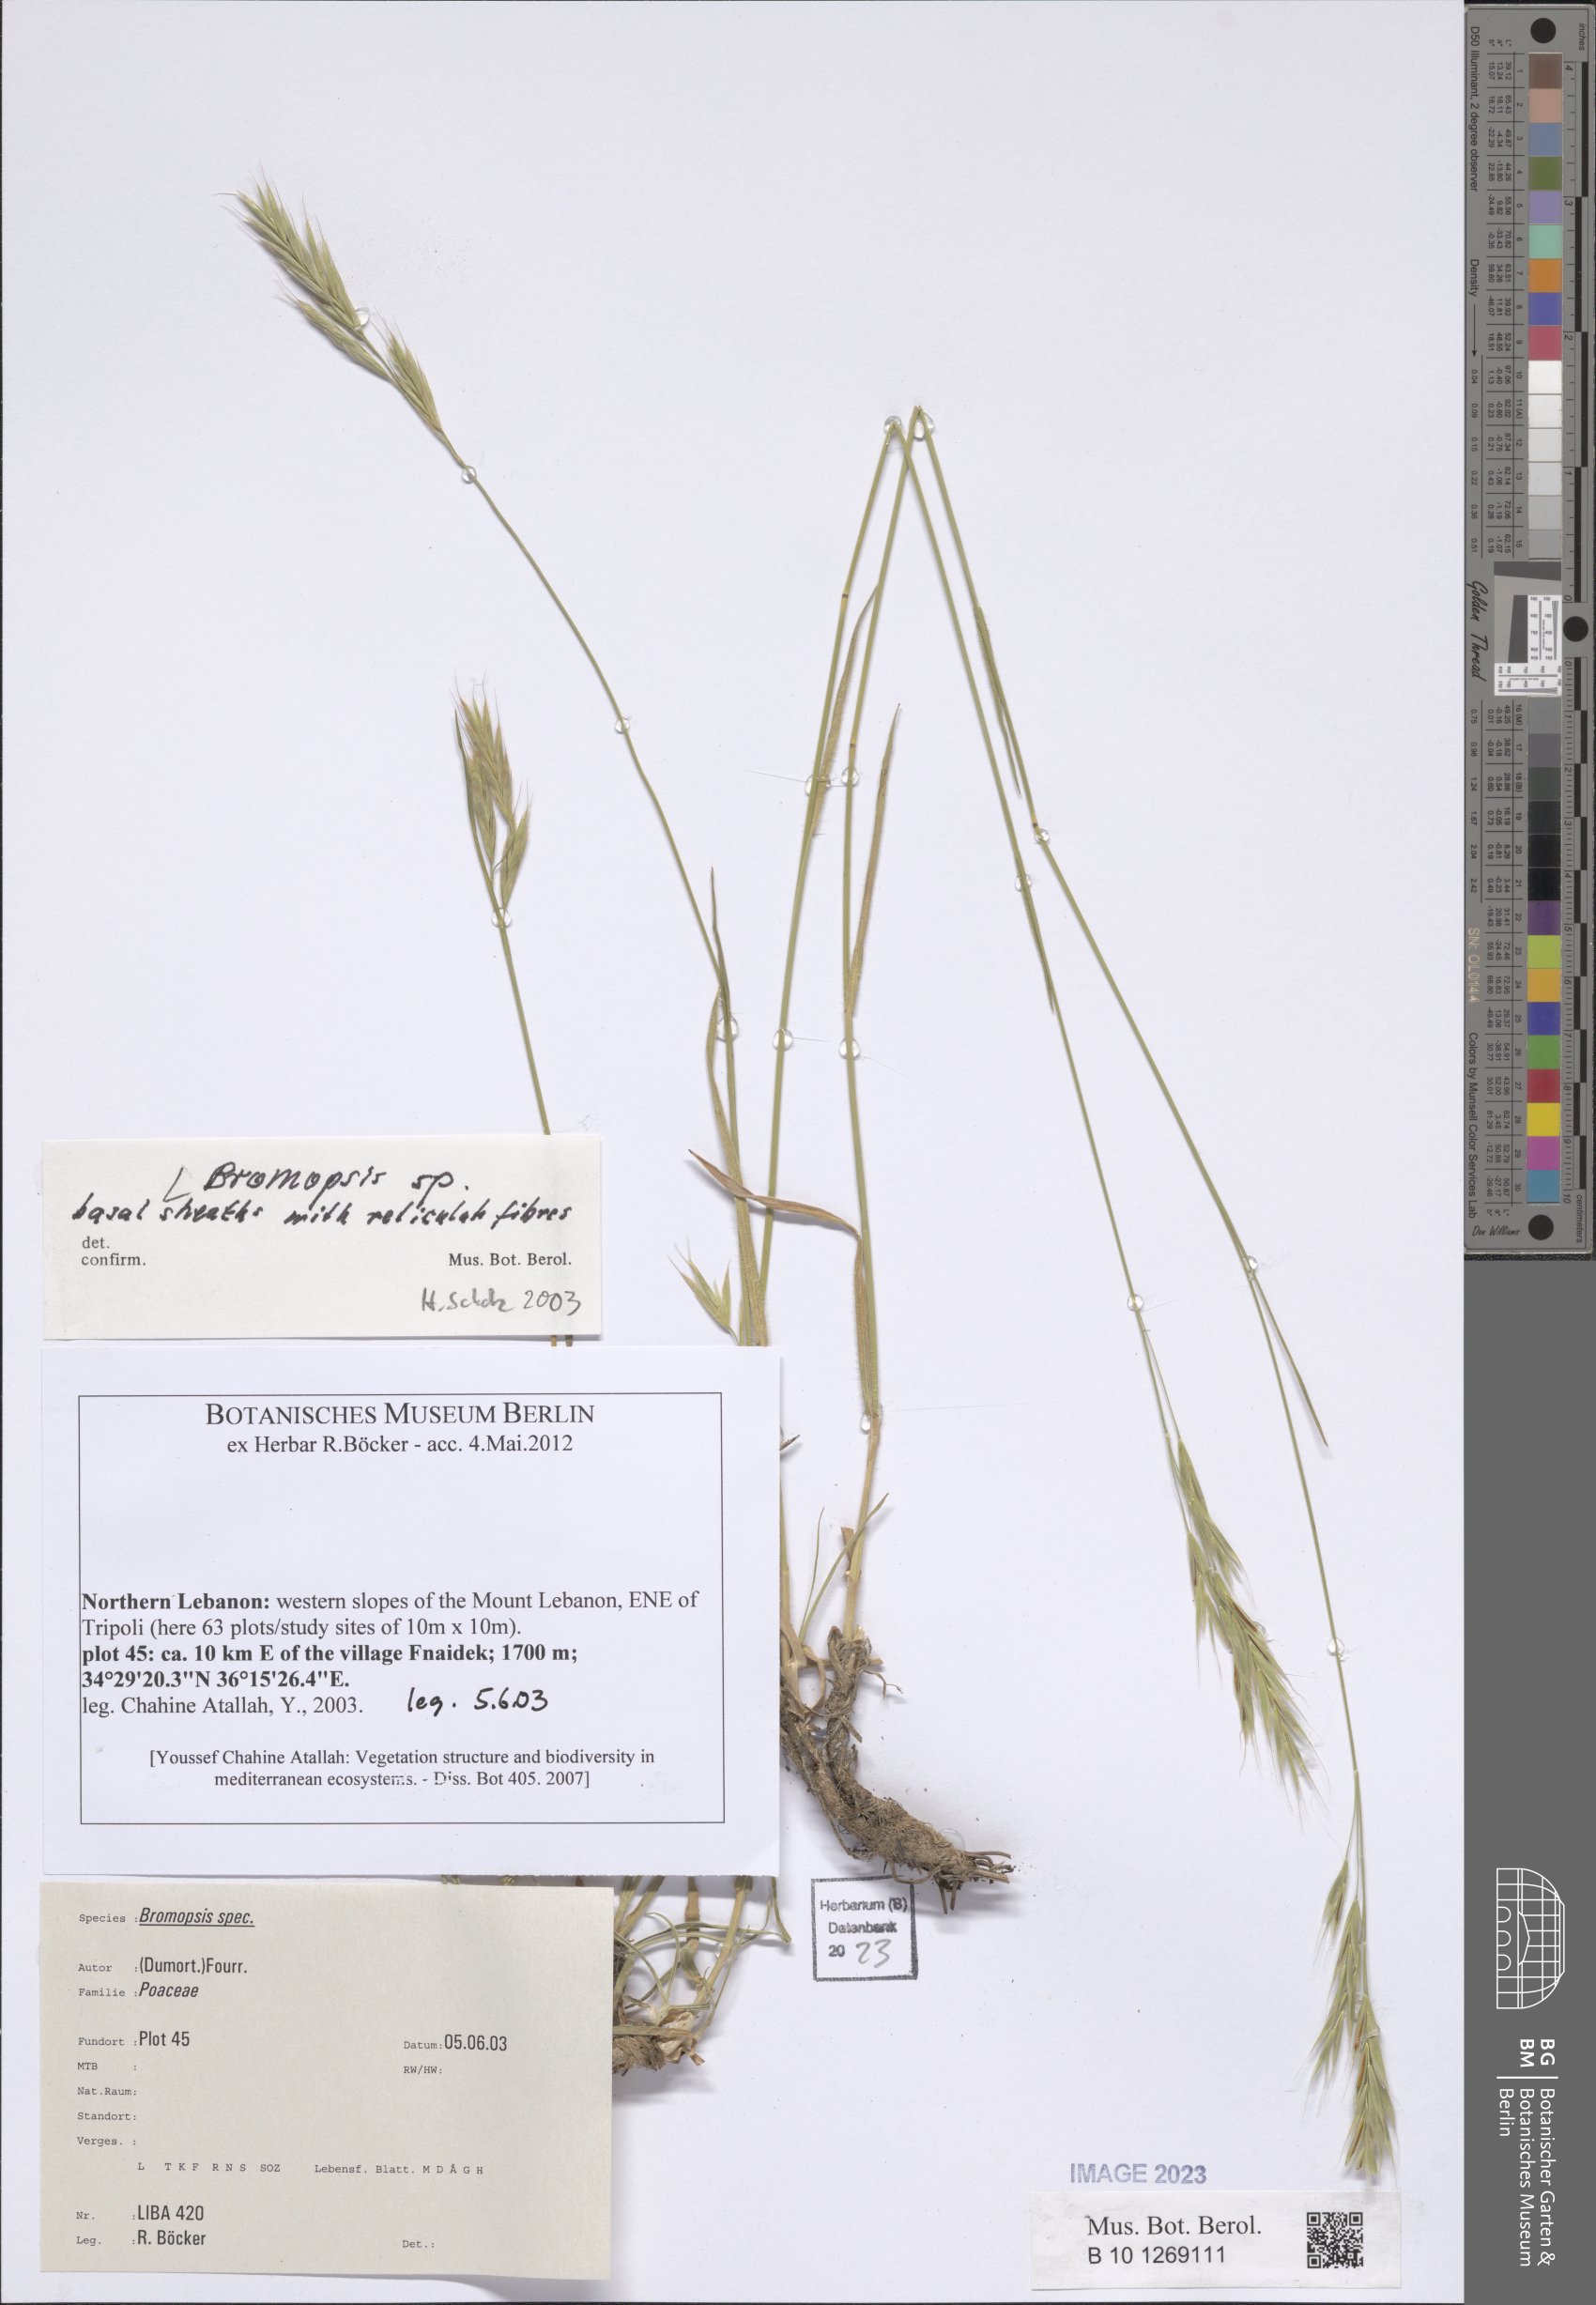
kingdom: Plantae
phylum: Tracheophyta
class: Liliopsida
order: Poales
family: Poaceae
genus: Bromus
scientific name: Bromus
